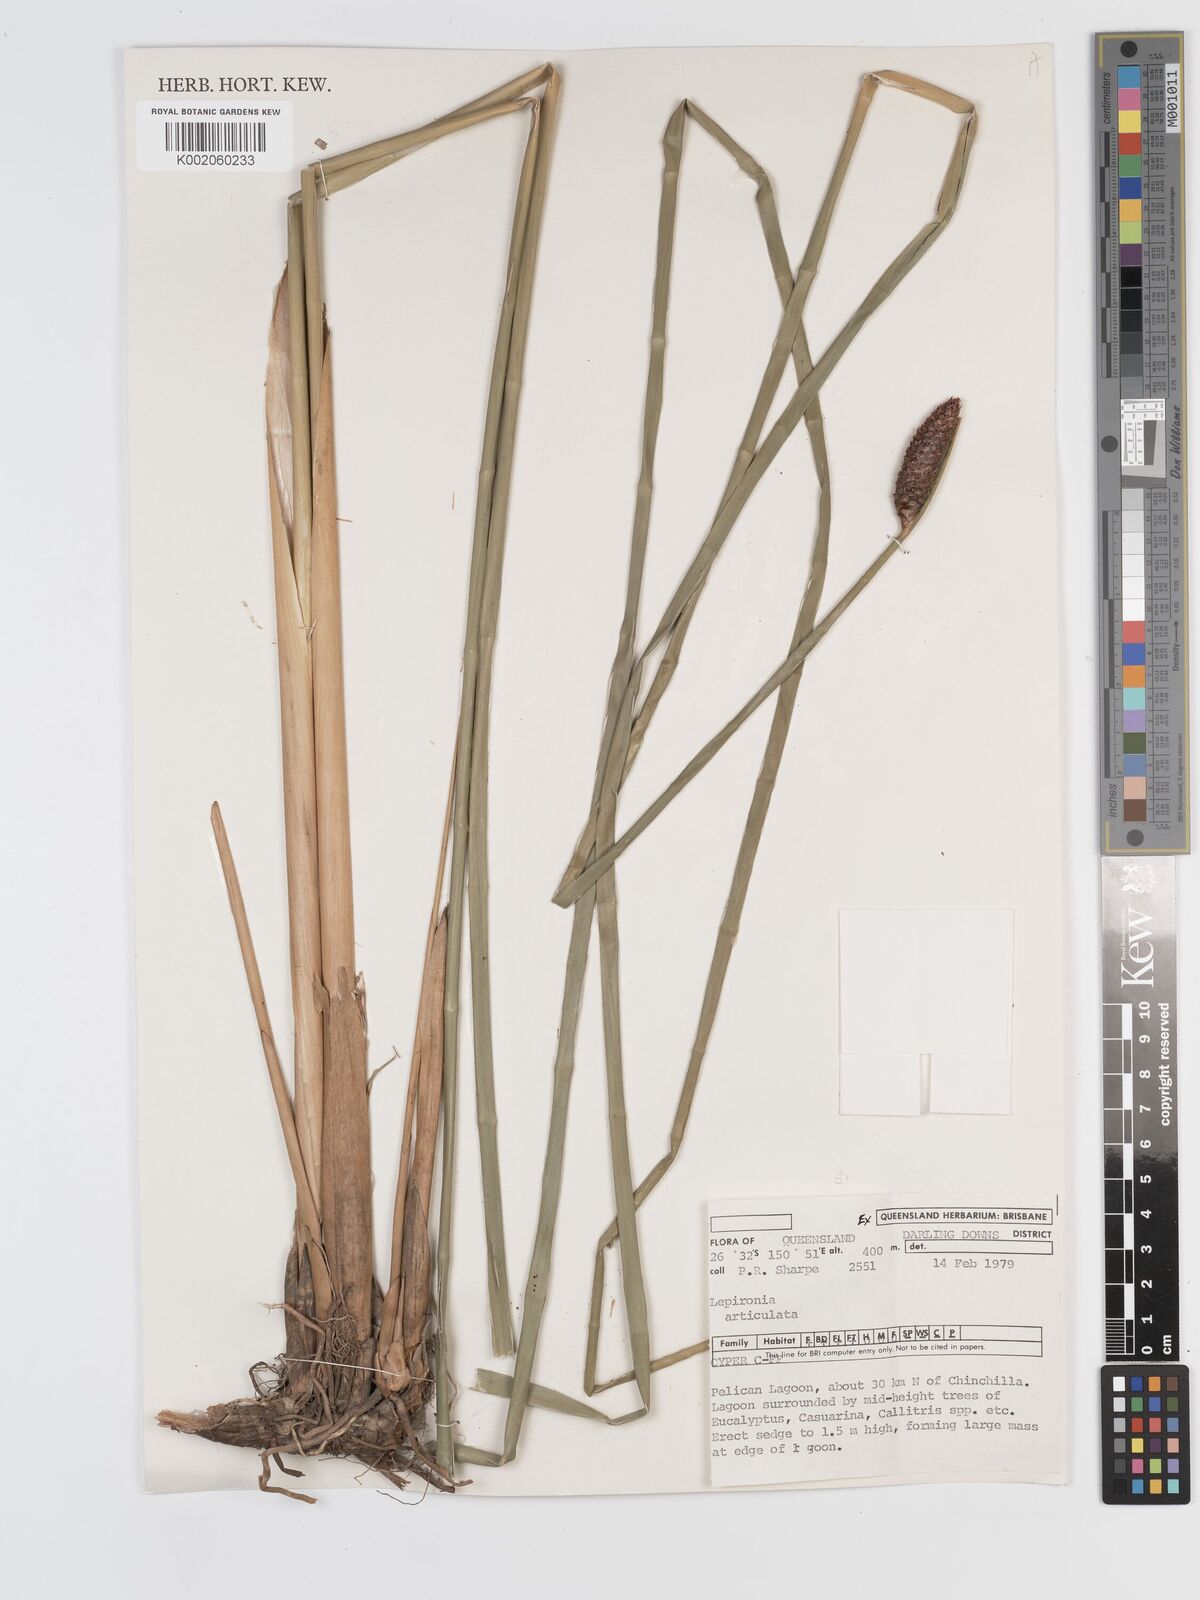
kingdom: Plantae
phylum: Tracheophyta
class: Liliopsida
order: Poales
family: Cyperaceae
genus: Lepironia
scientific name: Lepironia articulata
